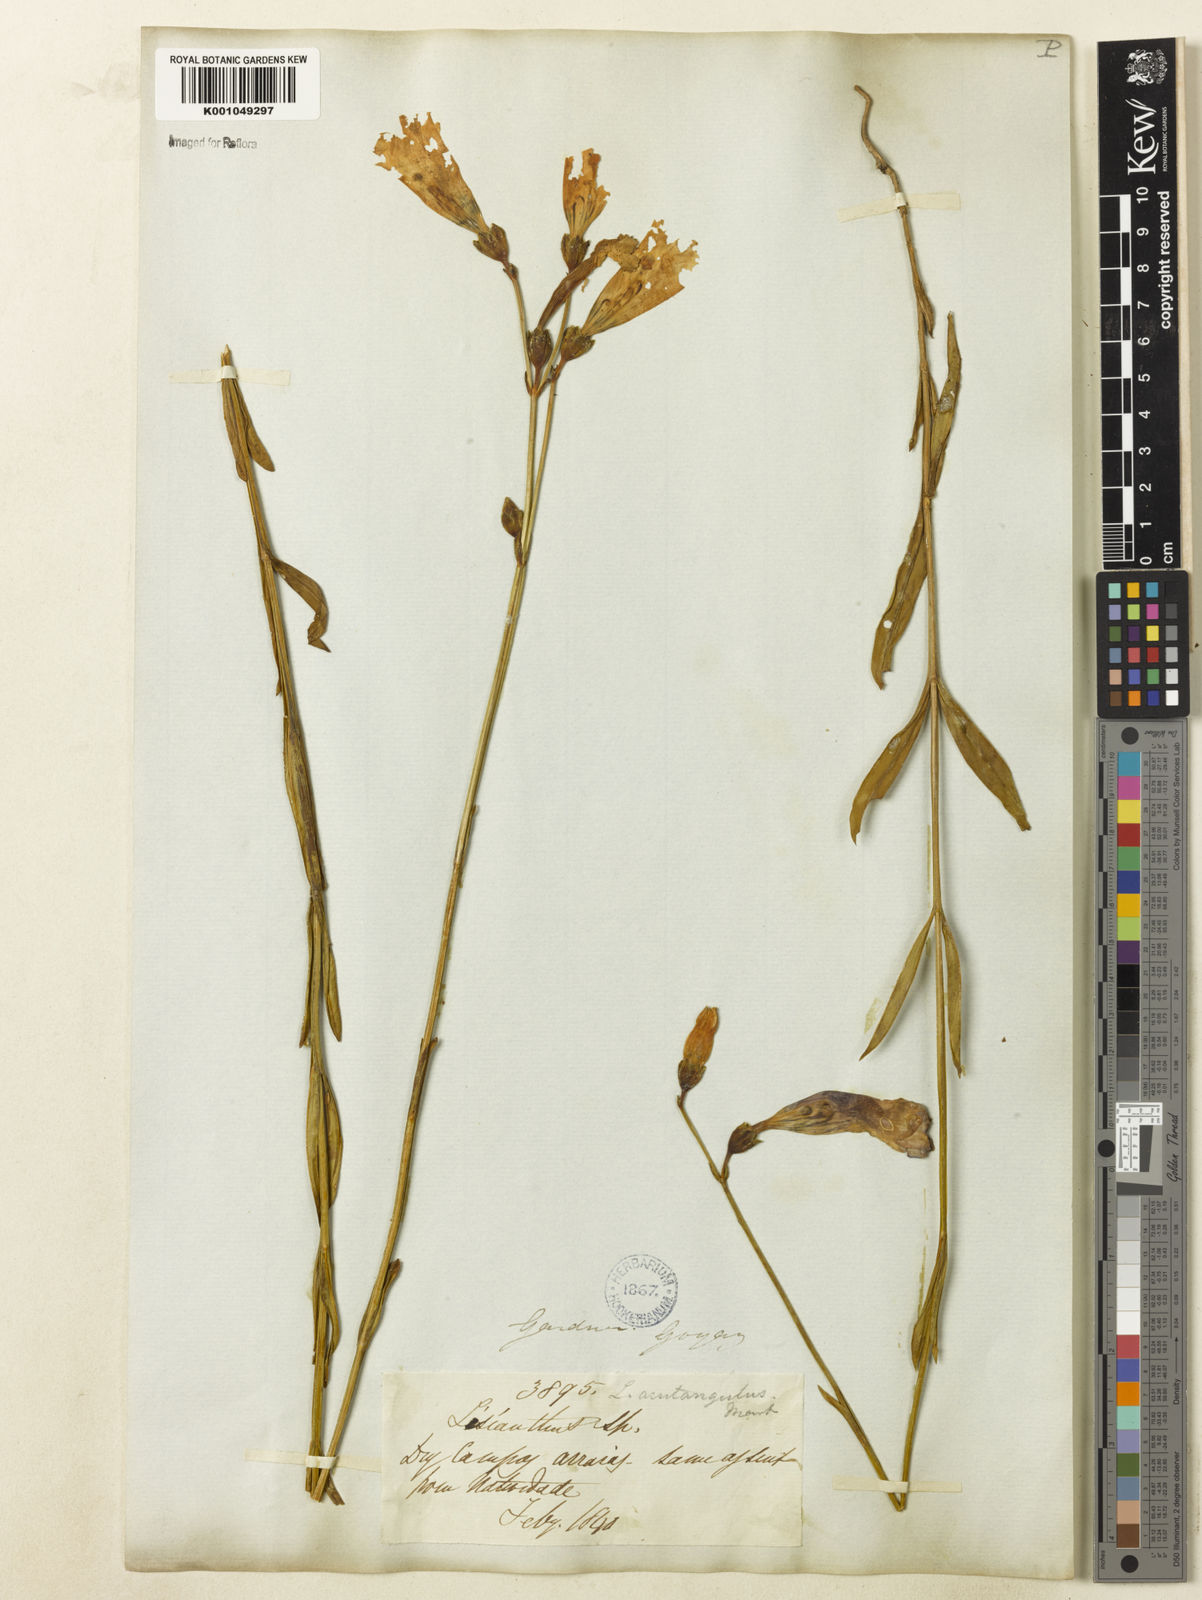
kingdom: Plantae
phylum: Tracheophyta
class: Magnoliopsida
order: Gentianales
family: Gentianaceae
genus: Lisianthius
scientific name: Lisianthius tetragonoalatus
